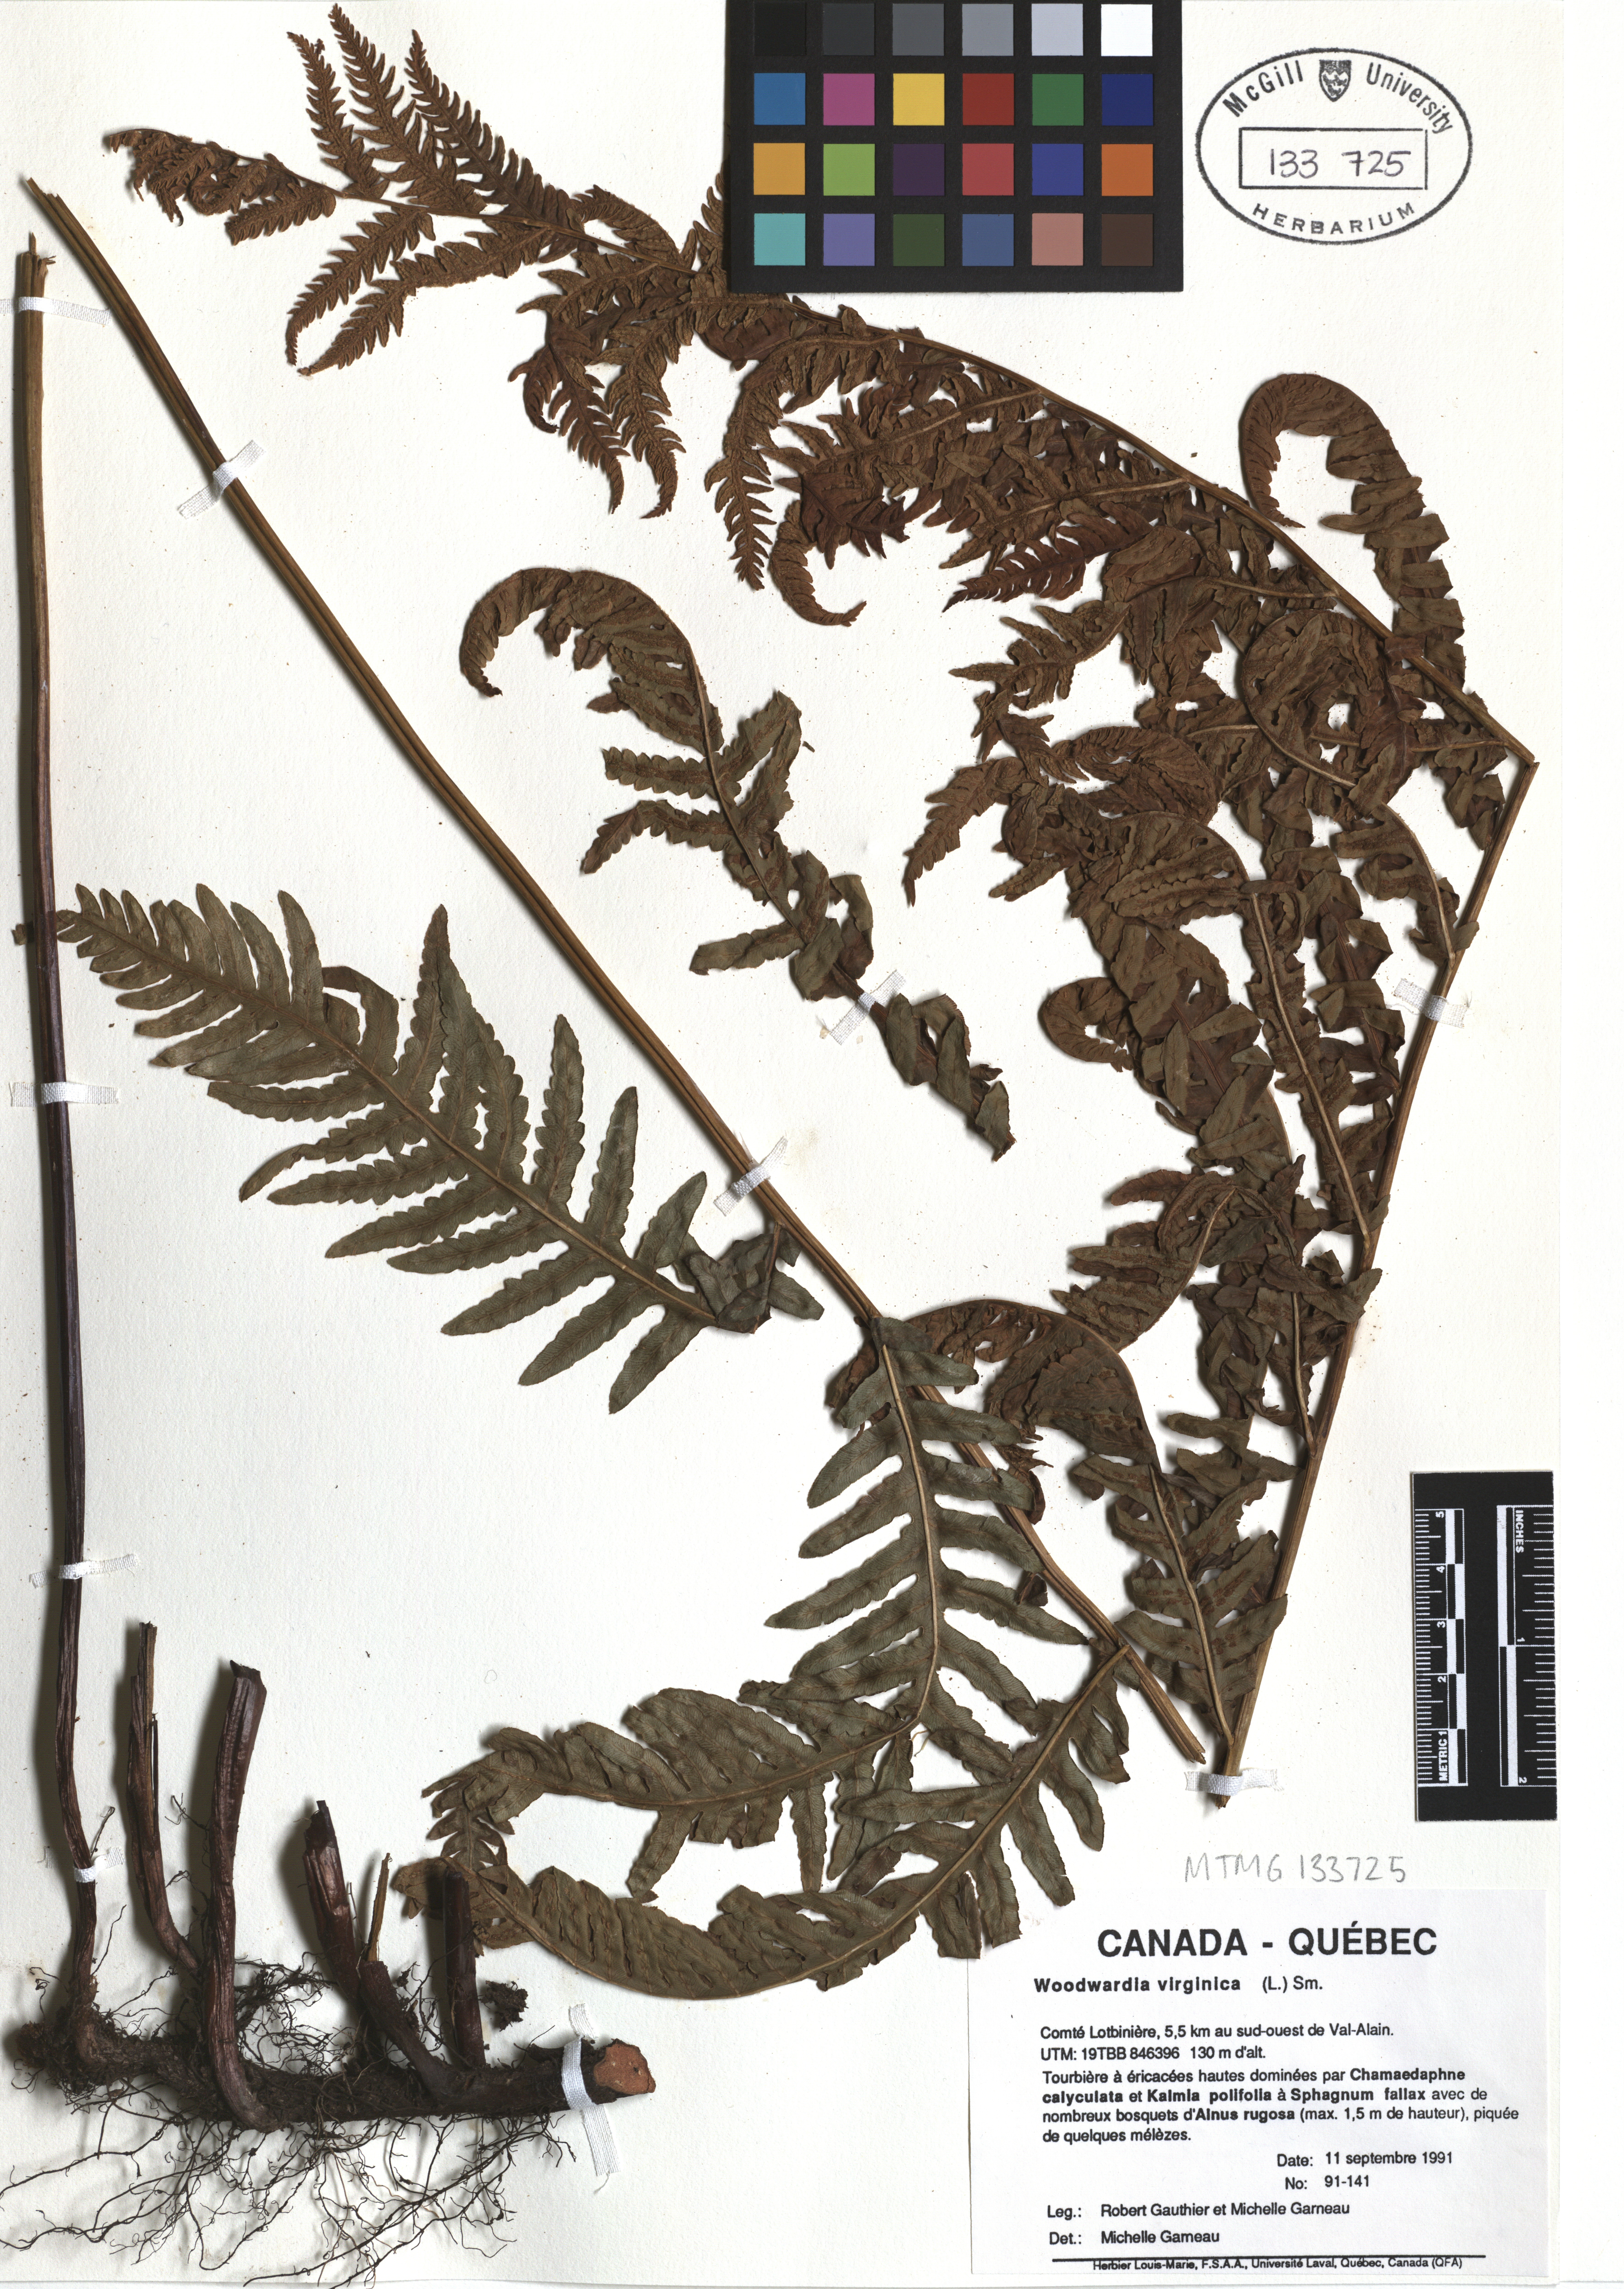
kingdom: Plantae
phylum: Tracheophyta
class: Polypodiopsida
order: Polypodiales
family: Blechnaceae
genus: Anchistea
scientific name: Anchistea virginica
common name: Virginia chain fern
